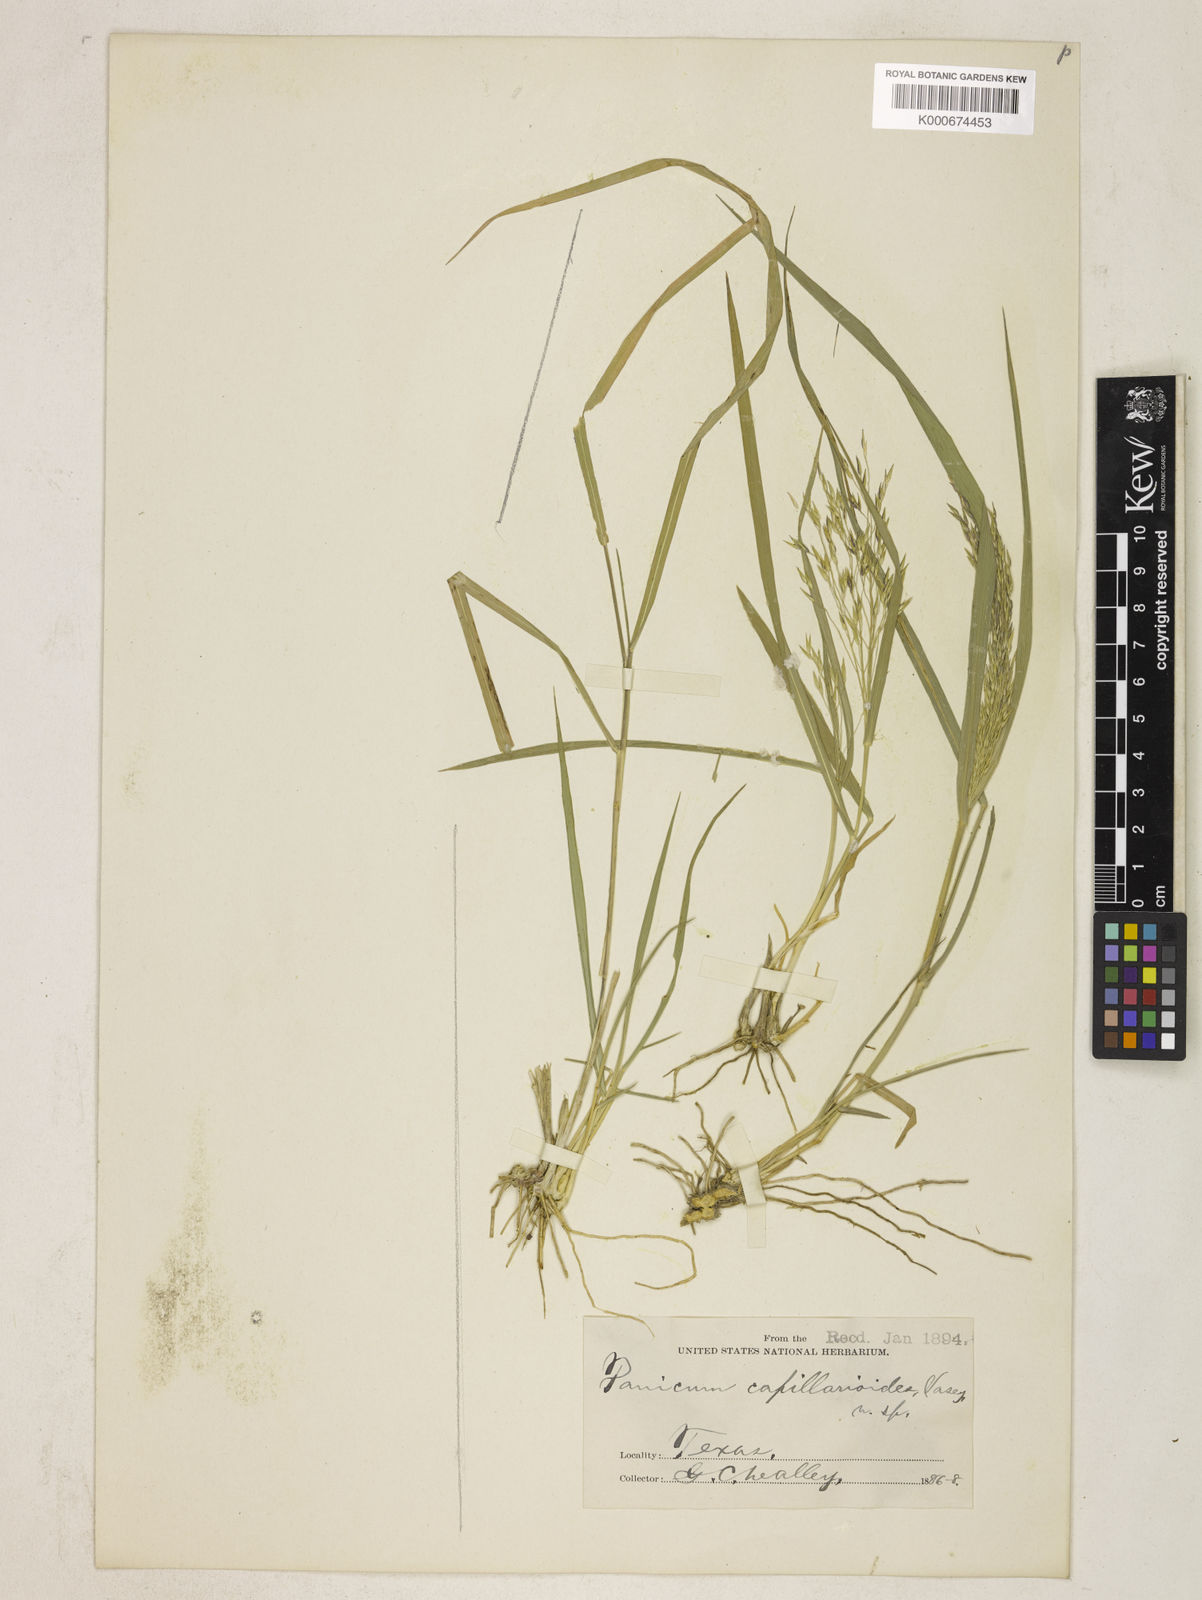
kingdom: Plantae
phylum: Tracheophyta
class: Liliopsida
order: Poales
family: Poaceae
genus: Panicum
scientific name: Panicum capillarioides
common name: Long-beak witchgrass
